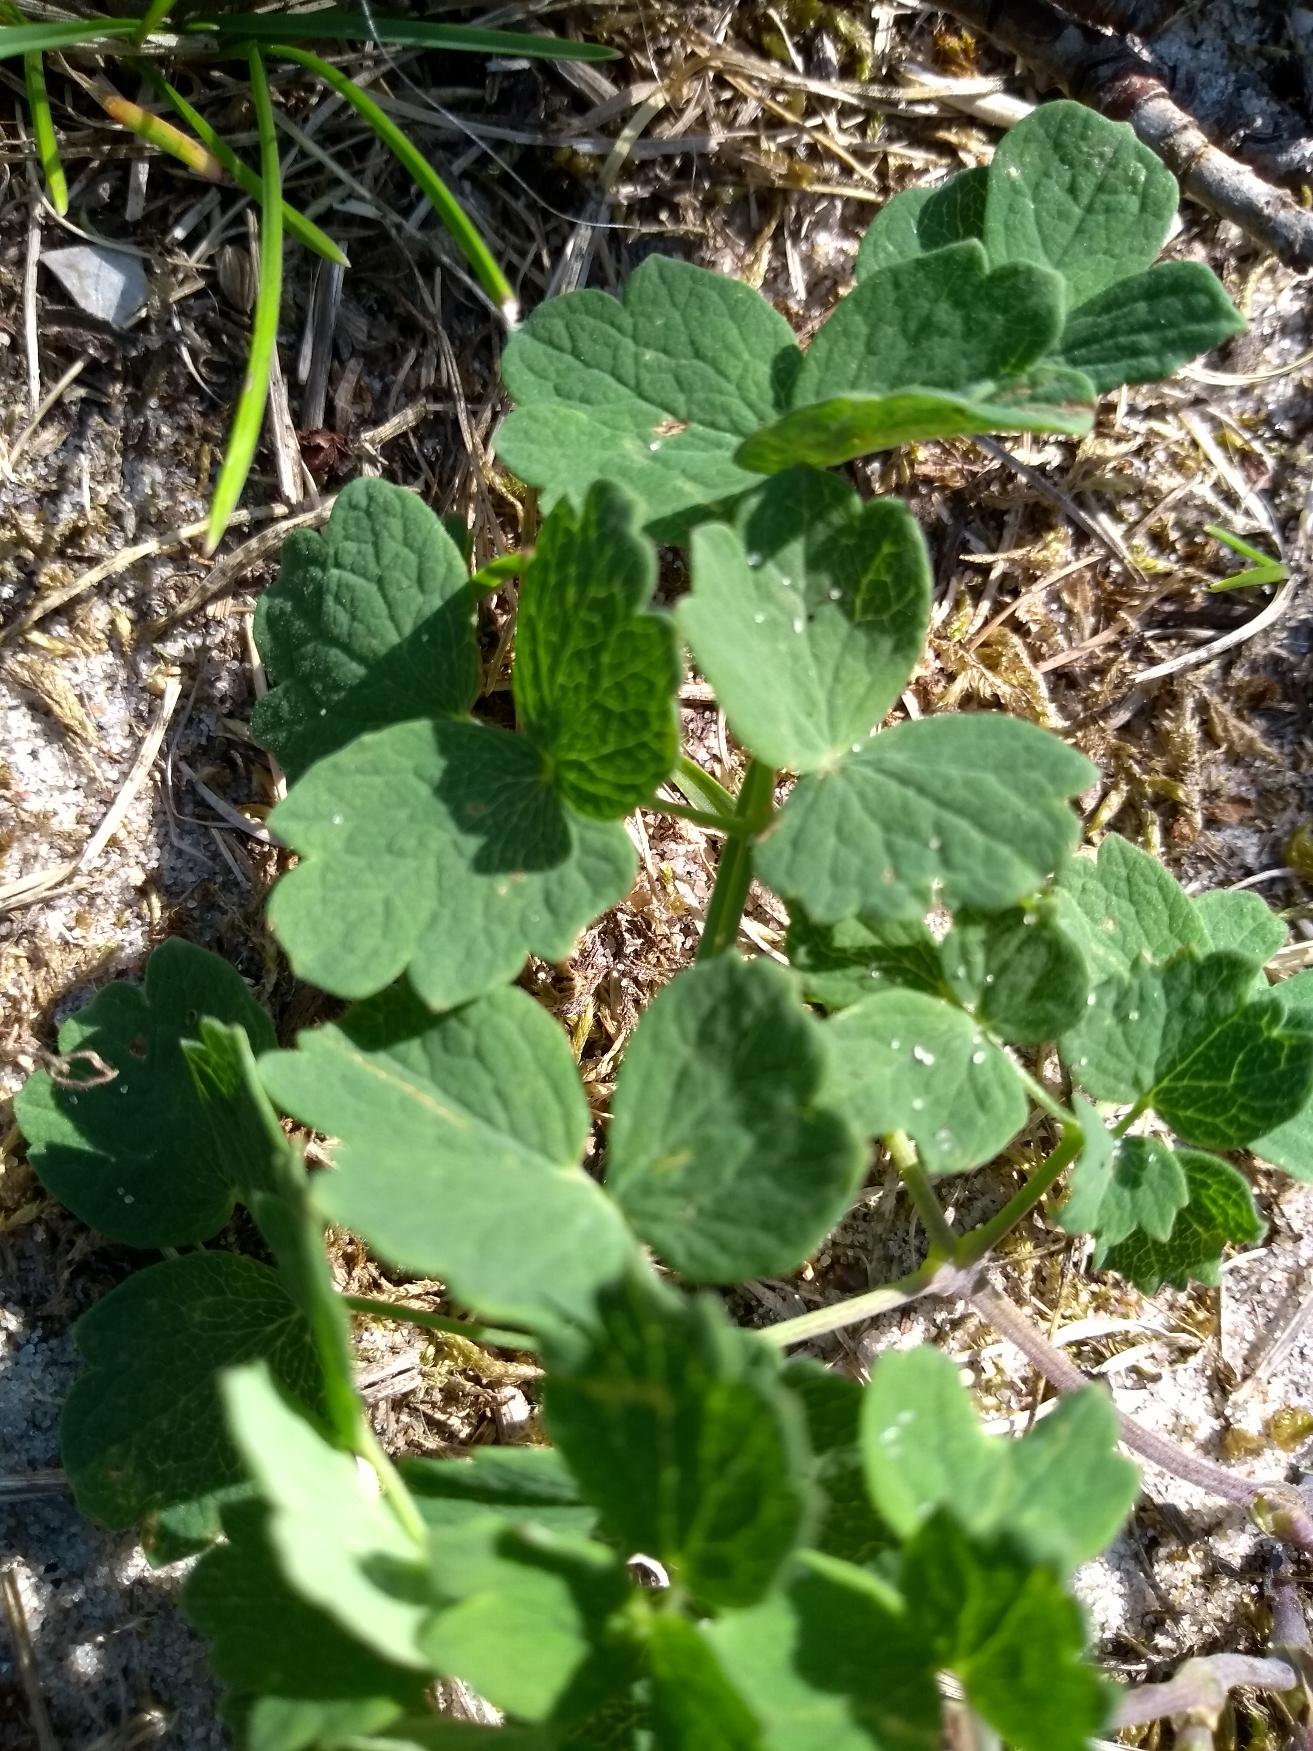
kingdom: Plantae
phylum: Tracheophyta
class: Magnoliopsida
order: Ranunculales
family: Ranunculaceae
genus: Thalictrum
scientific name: Thalictrum minus
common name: Liden frøstjerne
